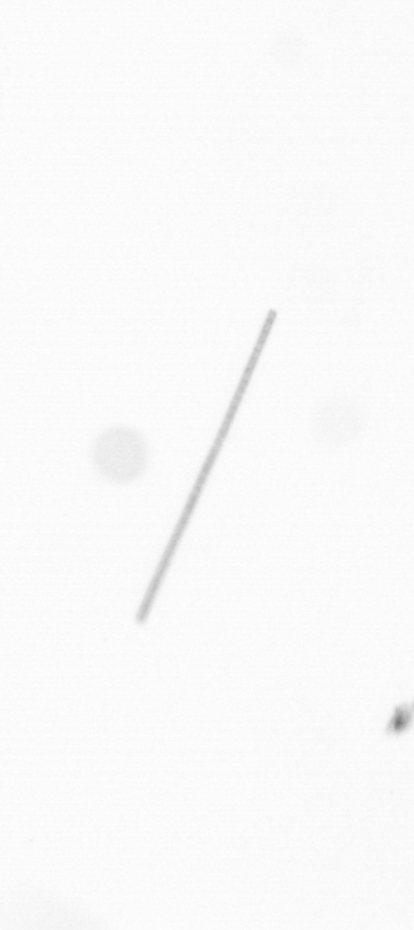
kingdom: Chromista
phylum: Ochrophyta
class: Bacillariophyceae
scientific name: Bacillariophyceae
